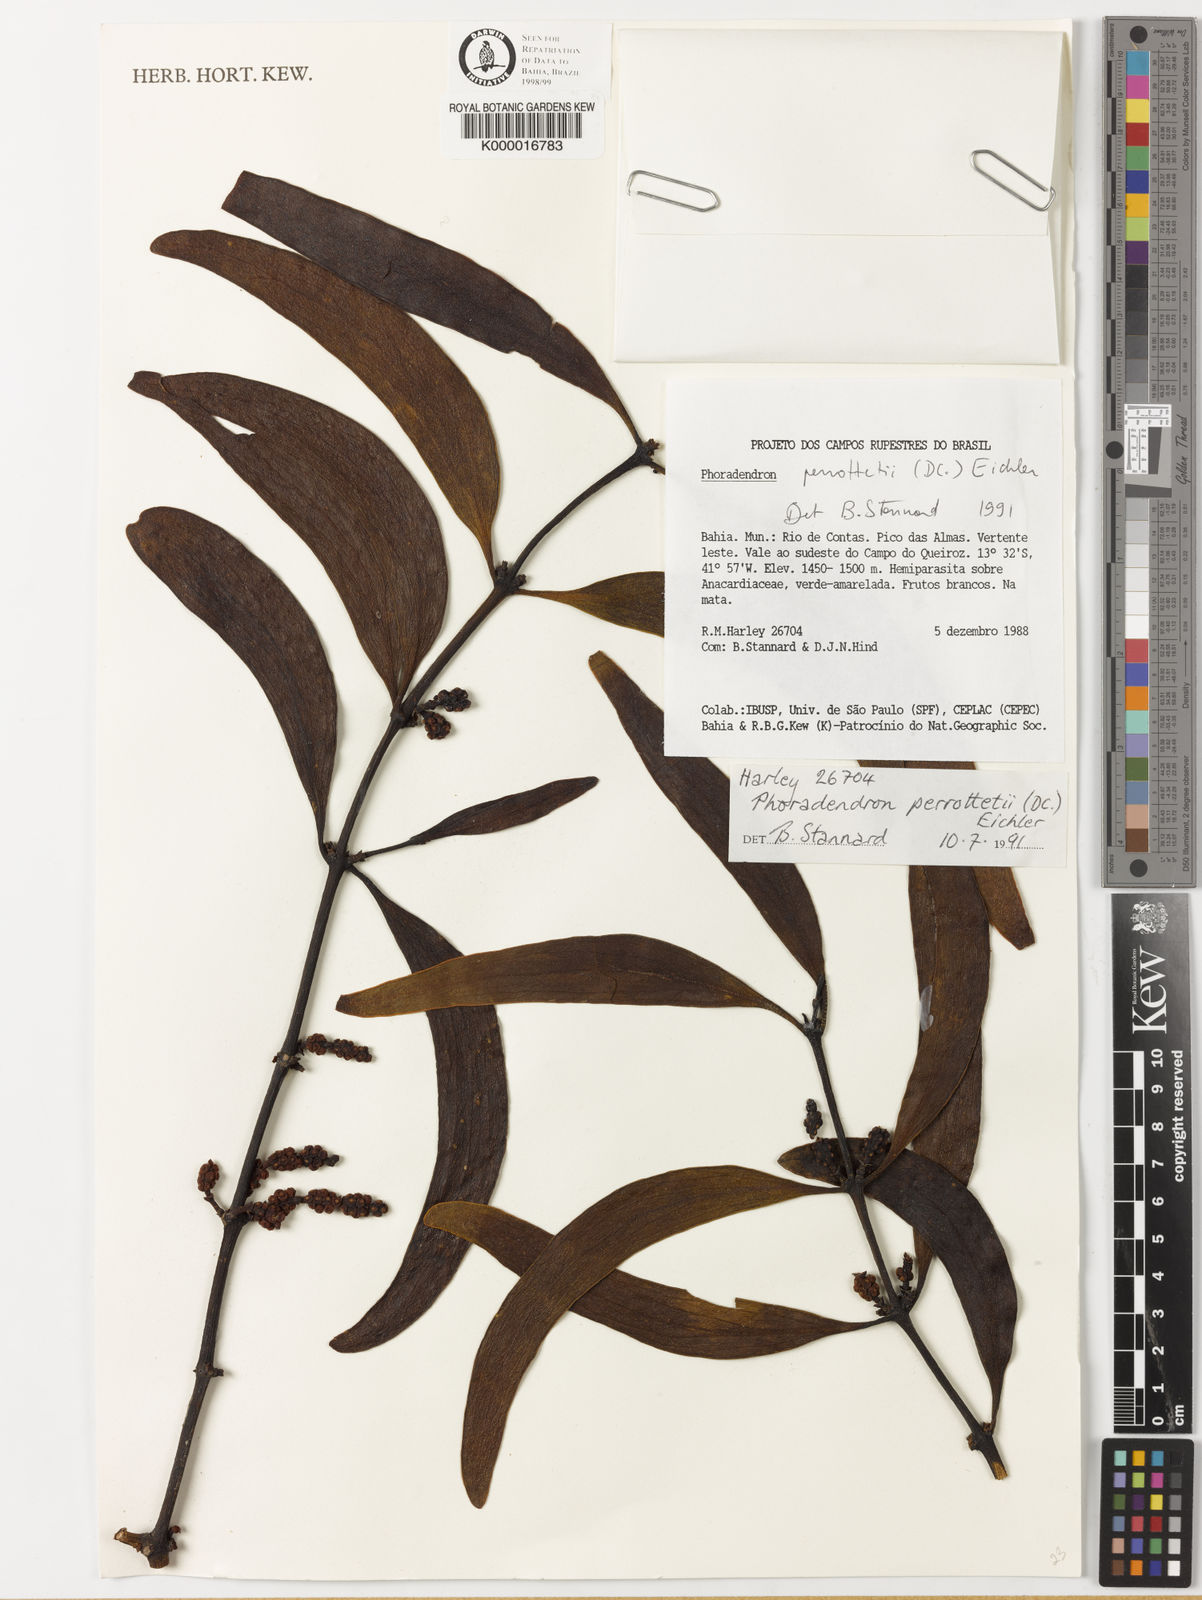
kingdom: Plantae
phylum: Tracheophyta
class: Magnoliopsida
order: Santalales
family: Viscaceae
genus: Phoradendron
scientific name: Phoradendron perrottetii
